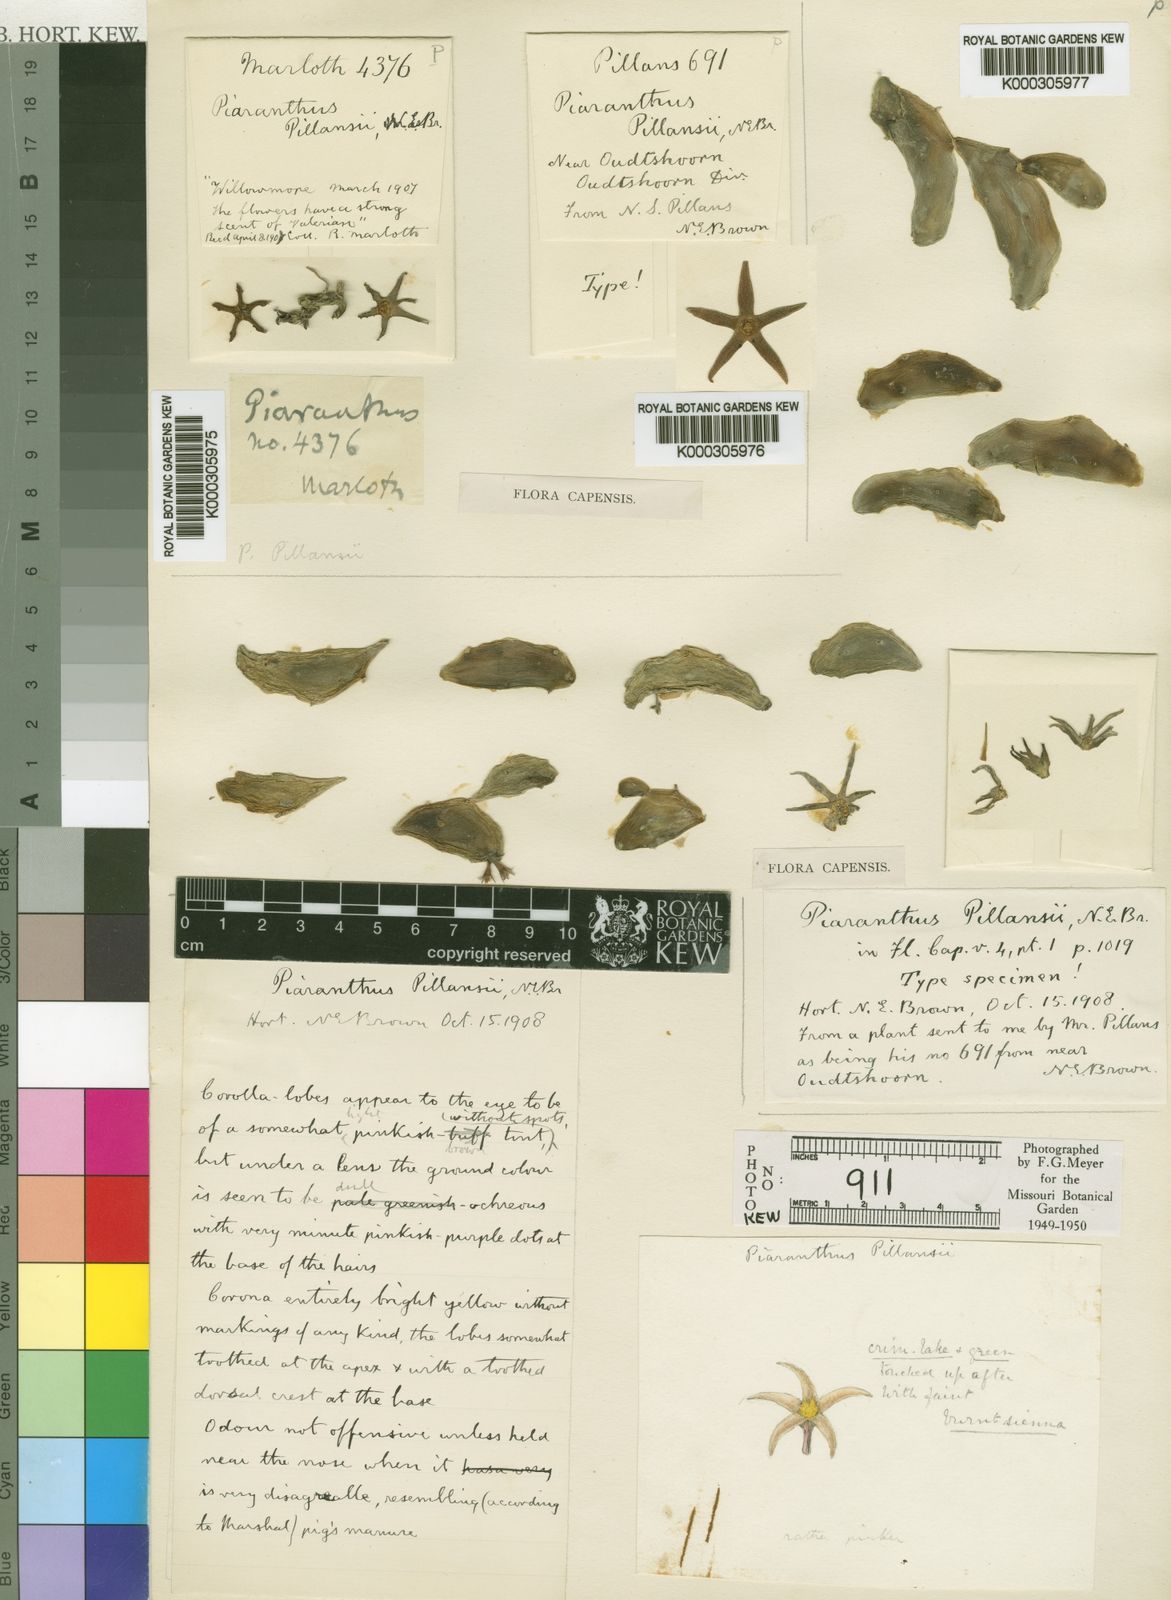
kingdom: Plantae
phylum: Tracheophyta
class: Magnoliopsida
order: Gentianales
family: Apocynaceae
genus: Ceropegia
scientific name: Ceropegia geminata
